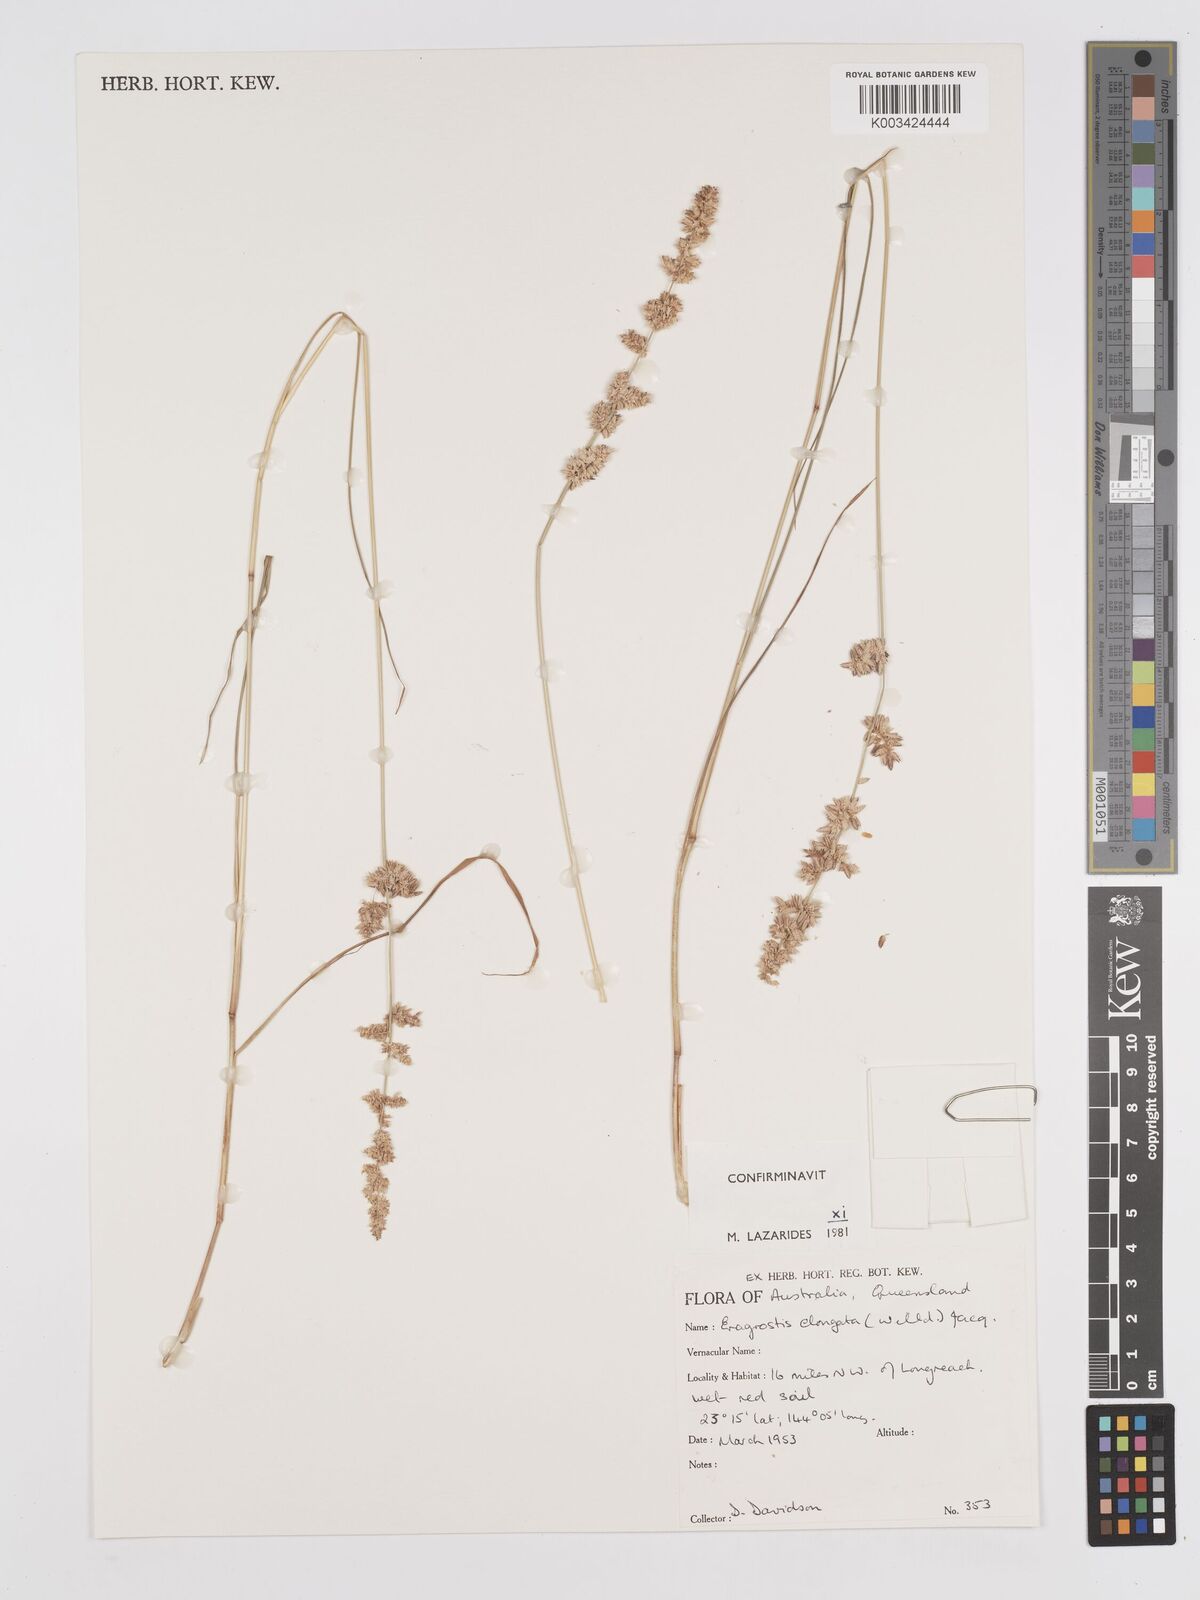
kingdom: Plantae
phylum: Tracheophyta
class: Liliopsida
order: Poales
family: Poaceae
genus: Eragrostis
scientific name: Eragrostis elongata
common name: Long lovegrass
